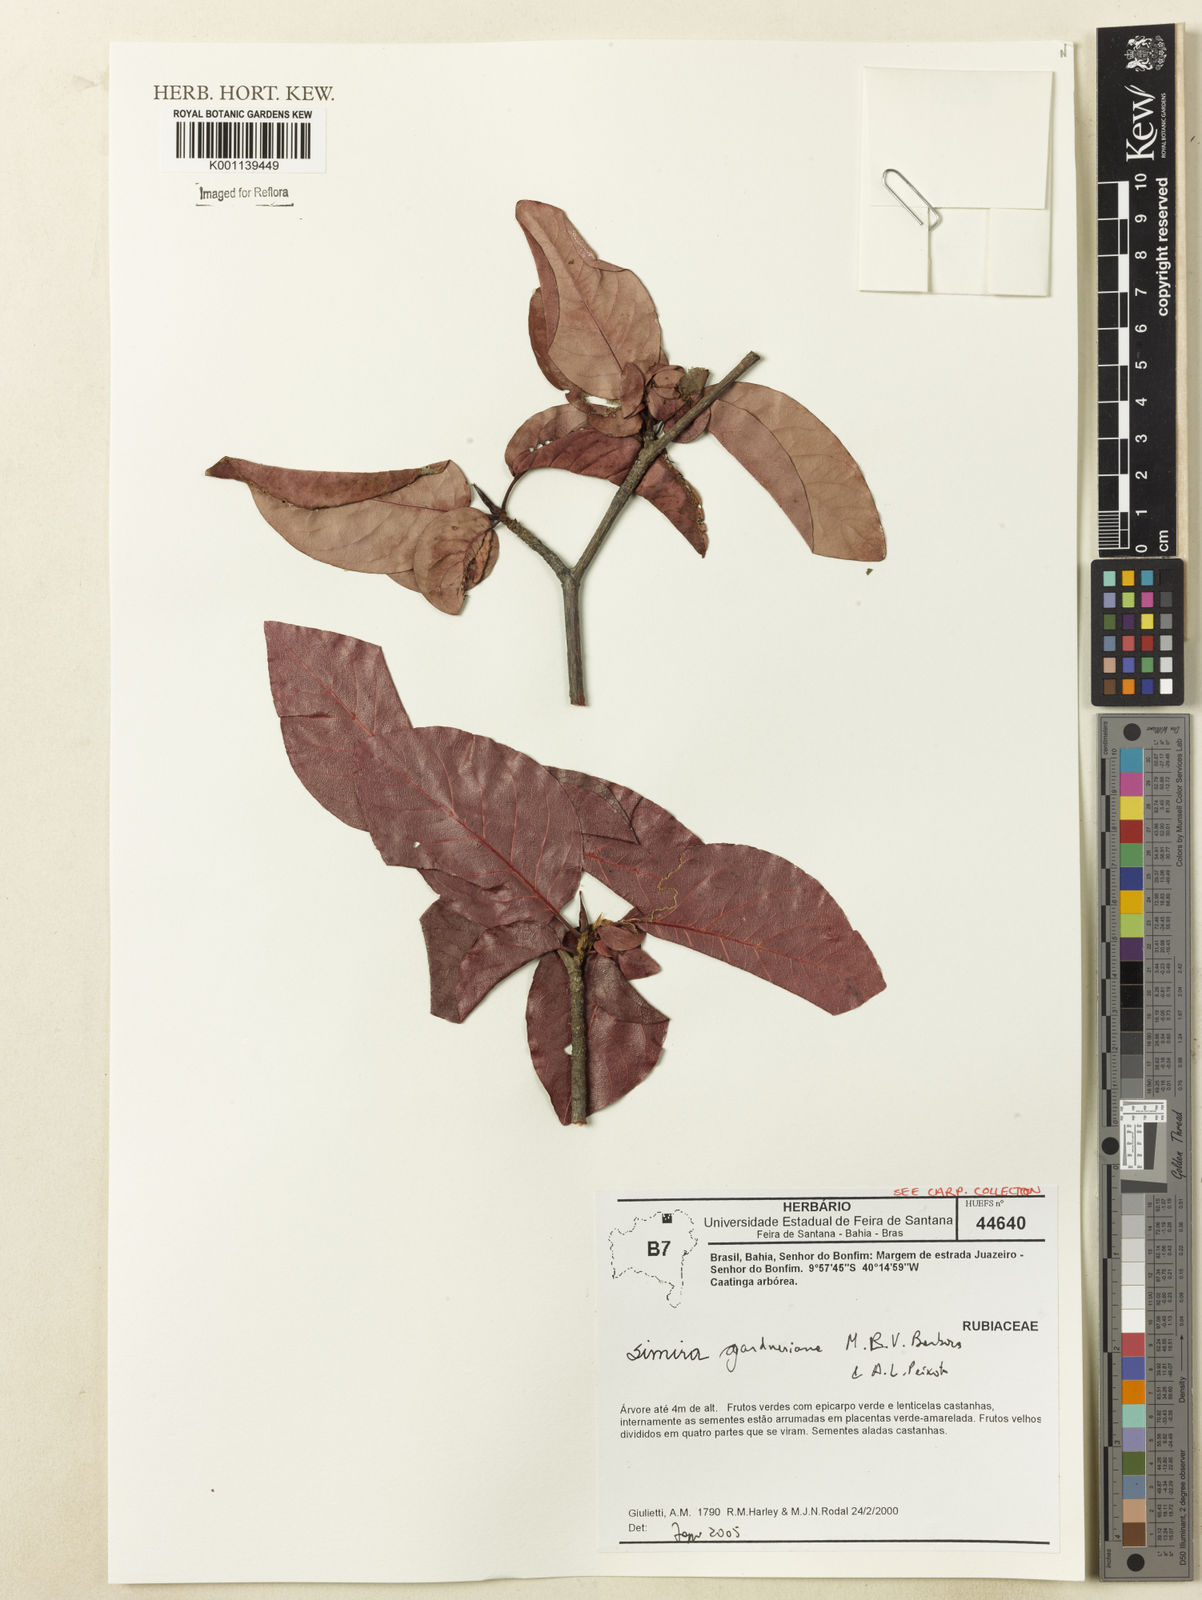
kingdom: Plantae
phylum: Tracheophyta
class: Magnoliopsida
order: Gentianales
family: Rubiaceae
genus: Simira
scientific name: Simira gardneriana
